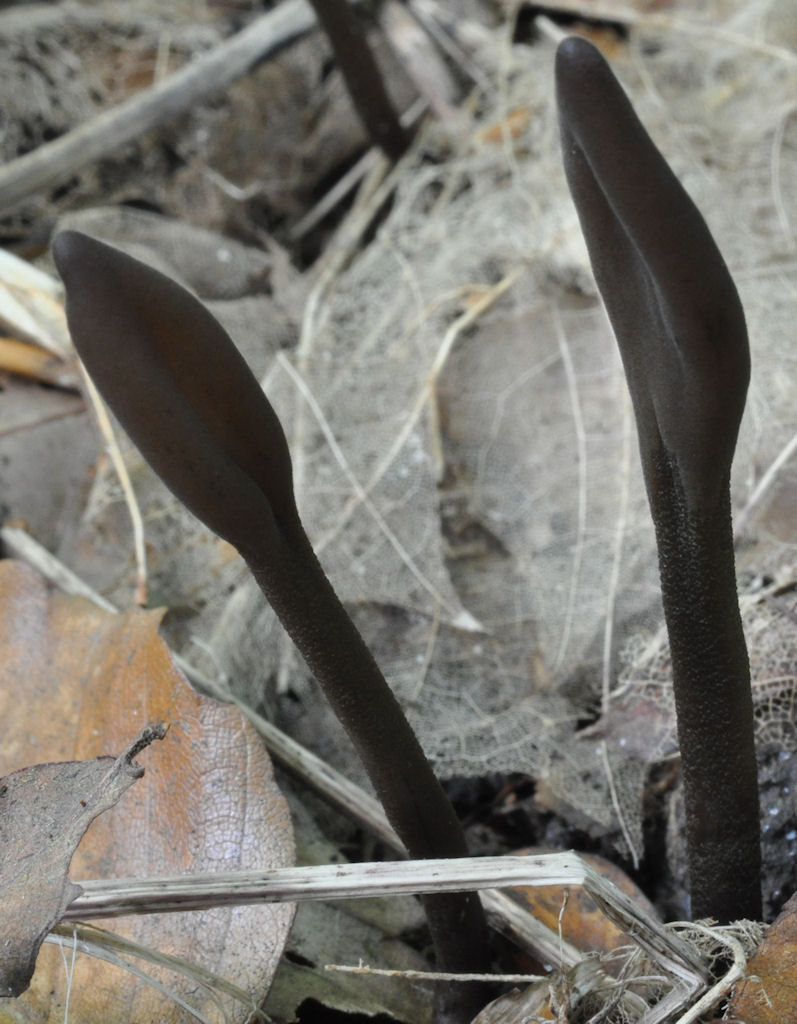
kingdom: Fungi
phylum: Ascomycota
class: Geoglossomycetes
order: Geoglossales
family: Geoglossaceae
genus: Geoglossum
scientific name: Geoglossum fallax
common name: småskællet jordtunge
